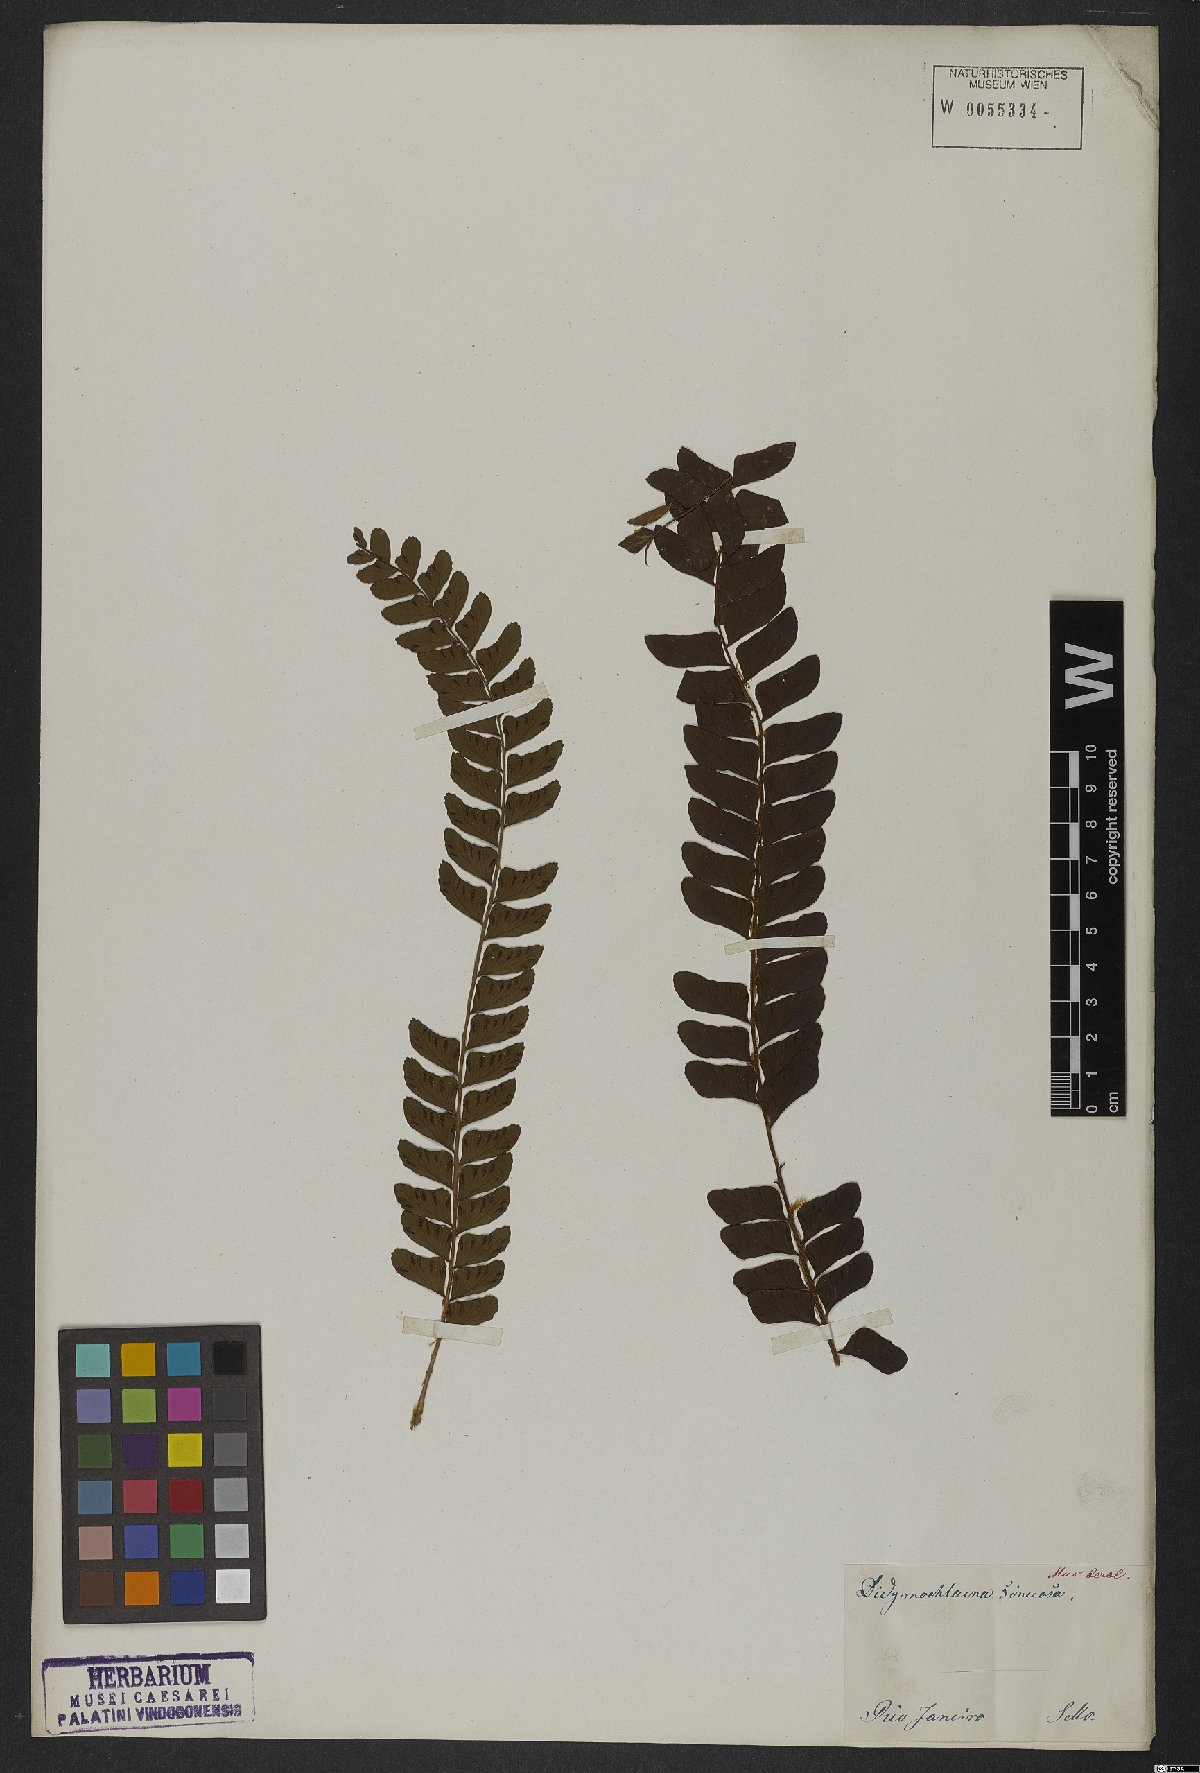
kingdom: Plantae
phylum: Tracheophyta
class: Polypodiopsida
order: Polypodiales
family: Didymochlaenaceae
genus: Didymochlaena
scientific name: Didymochlaena truncatula
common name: Mahogany fern
